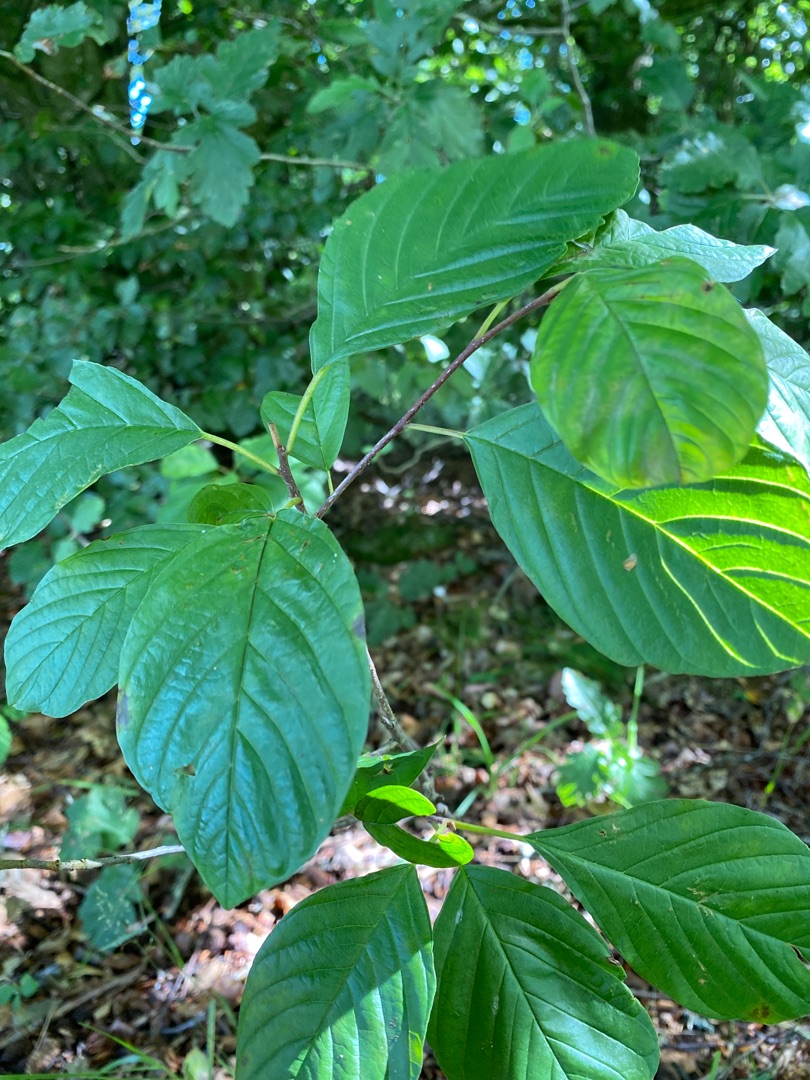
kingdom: Plantae
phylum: Tracheophyta
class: Magnoliopsida
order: Rosales
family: Rhamnaceae
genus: Frangula
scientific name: Frangula alnus
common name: Tørst
